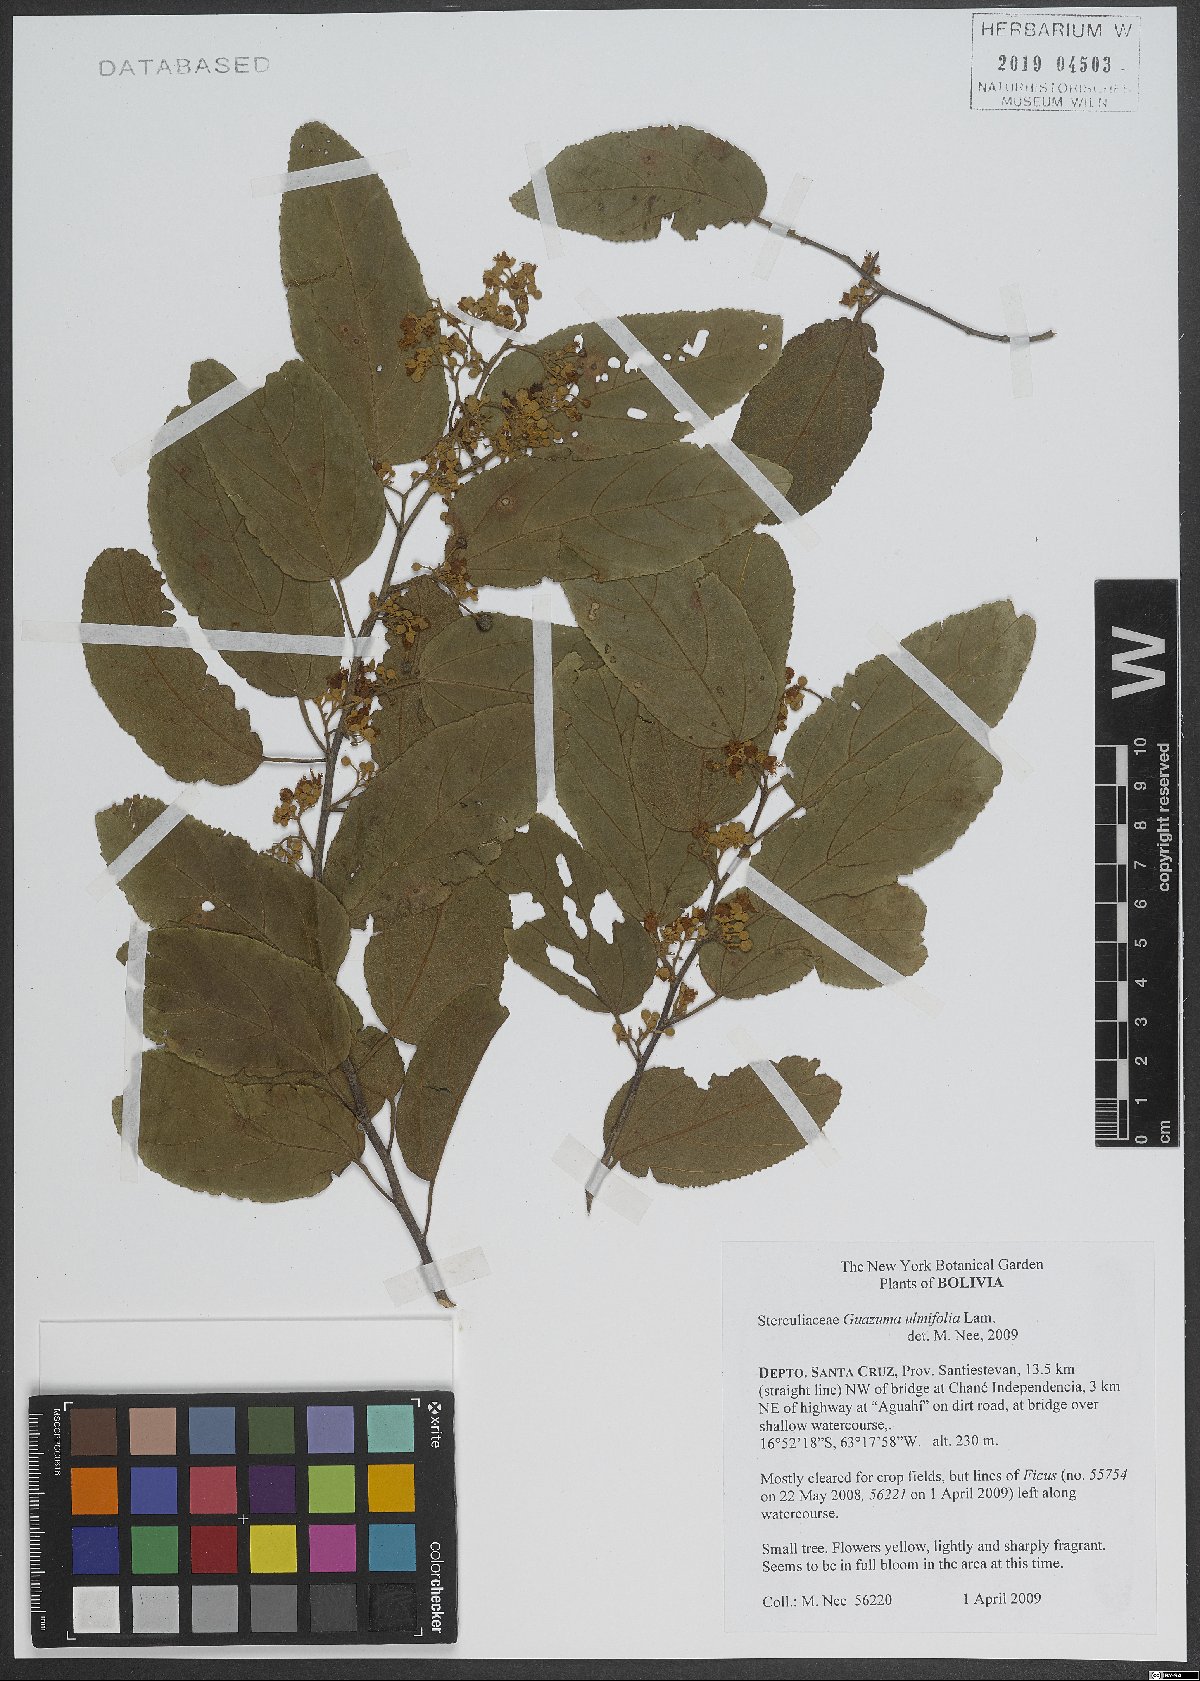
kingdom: Plantae
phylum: Tracheophyta
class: Magnoliopsida
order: Malvales
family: Malvaceae
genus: Guazuma
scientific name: Guazuma ulmifolia
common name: Bastard-cedar
